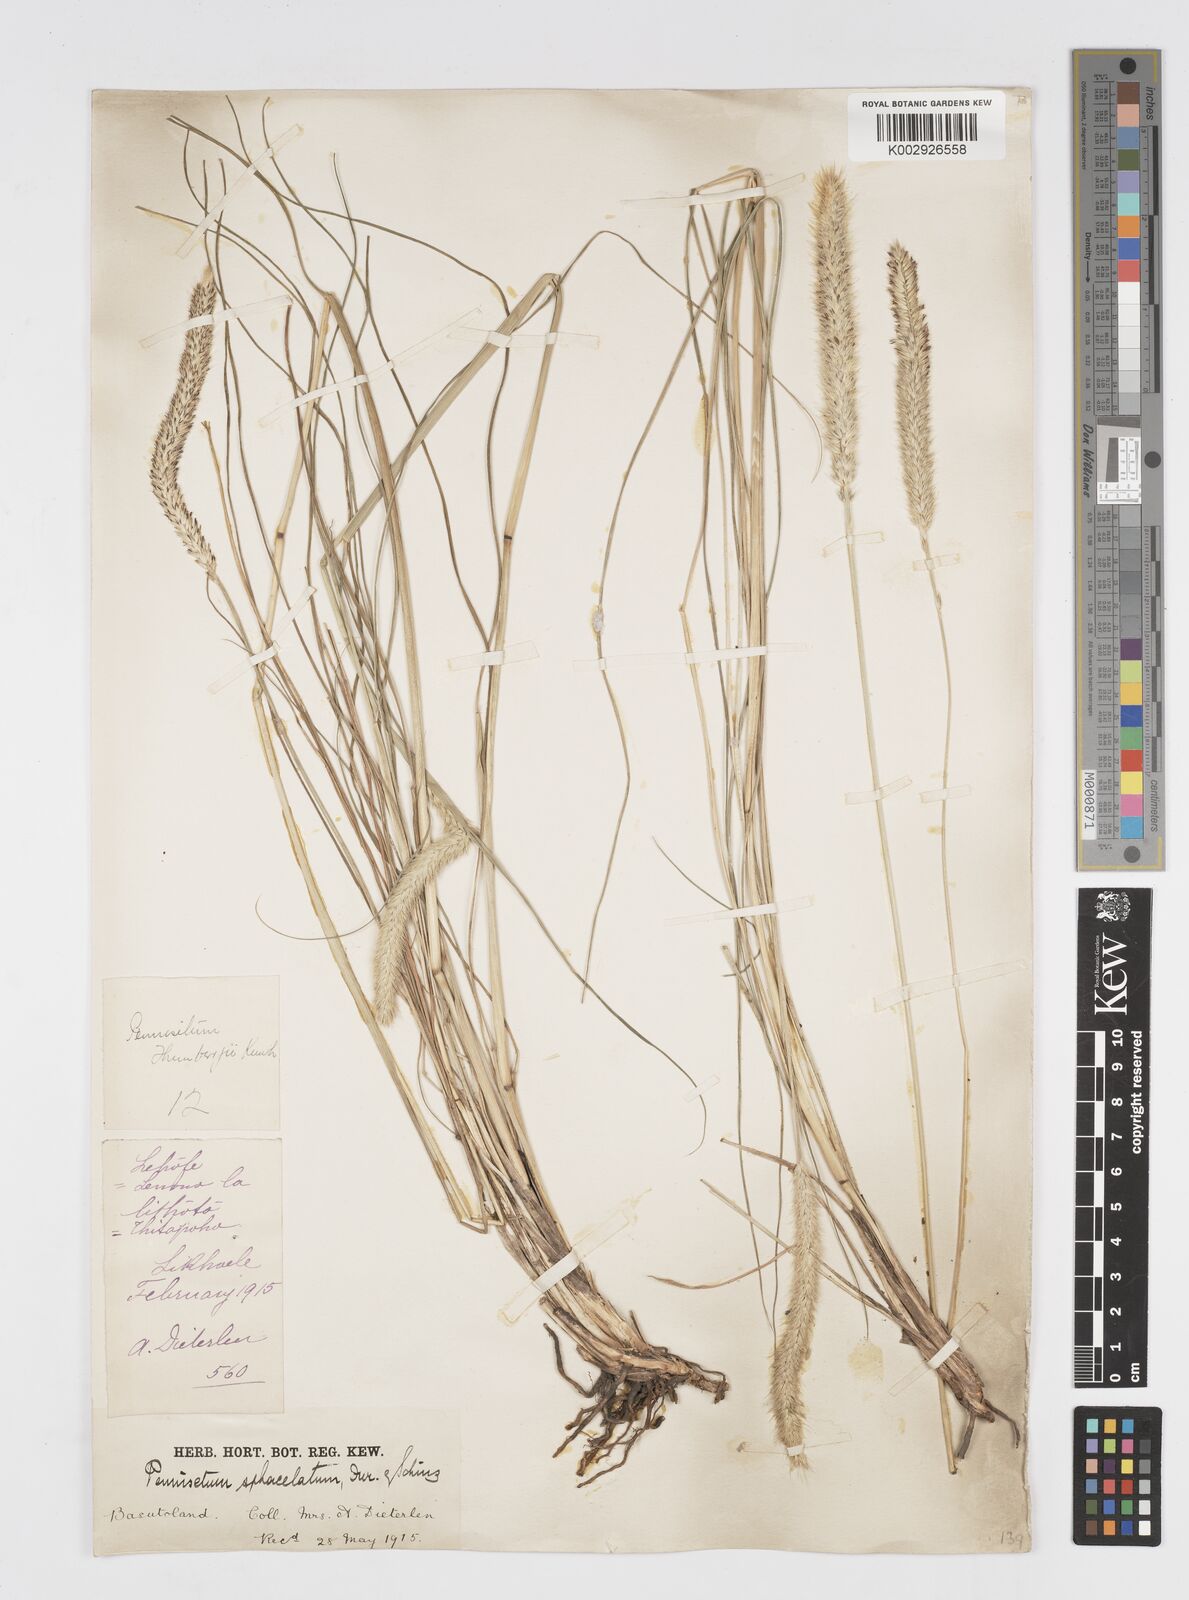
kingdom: Plantae
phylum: Tracheophyta
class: Liliopsida
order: Poales
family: Poaceae
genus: Cenchrus
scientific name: Cenchrus sphacelatus
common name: Bulgras
